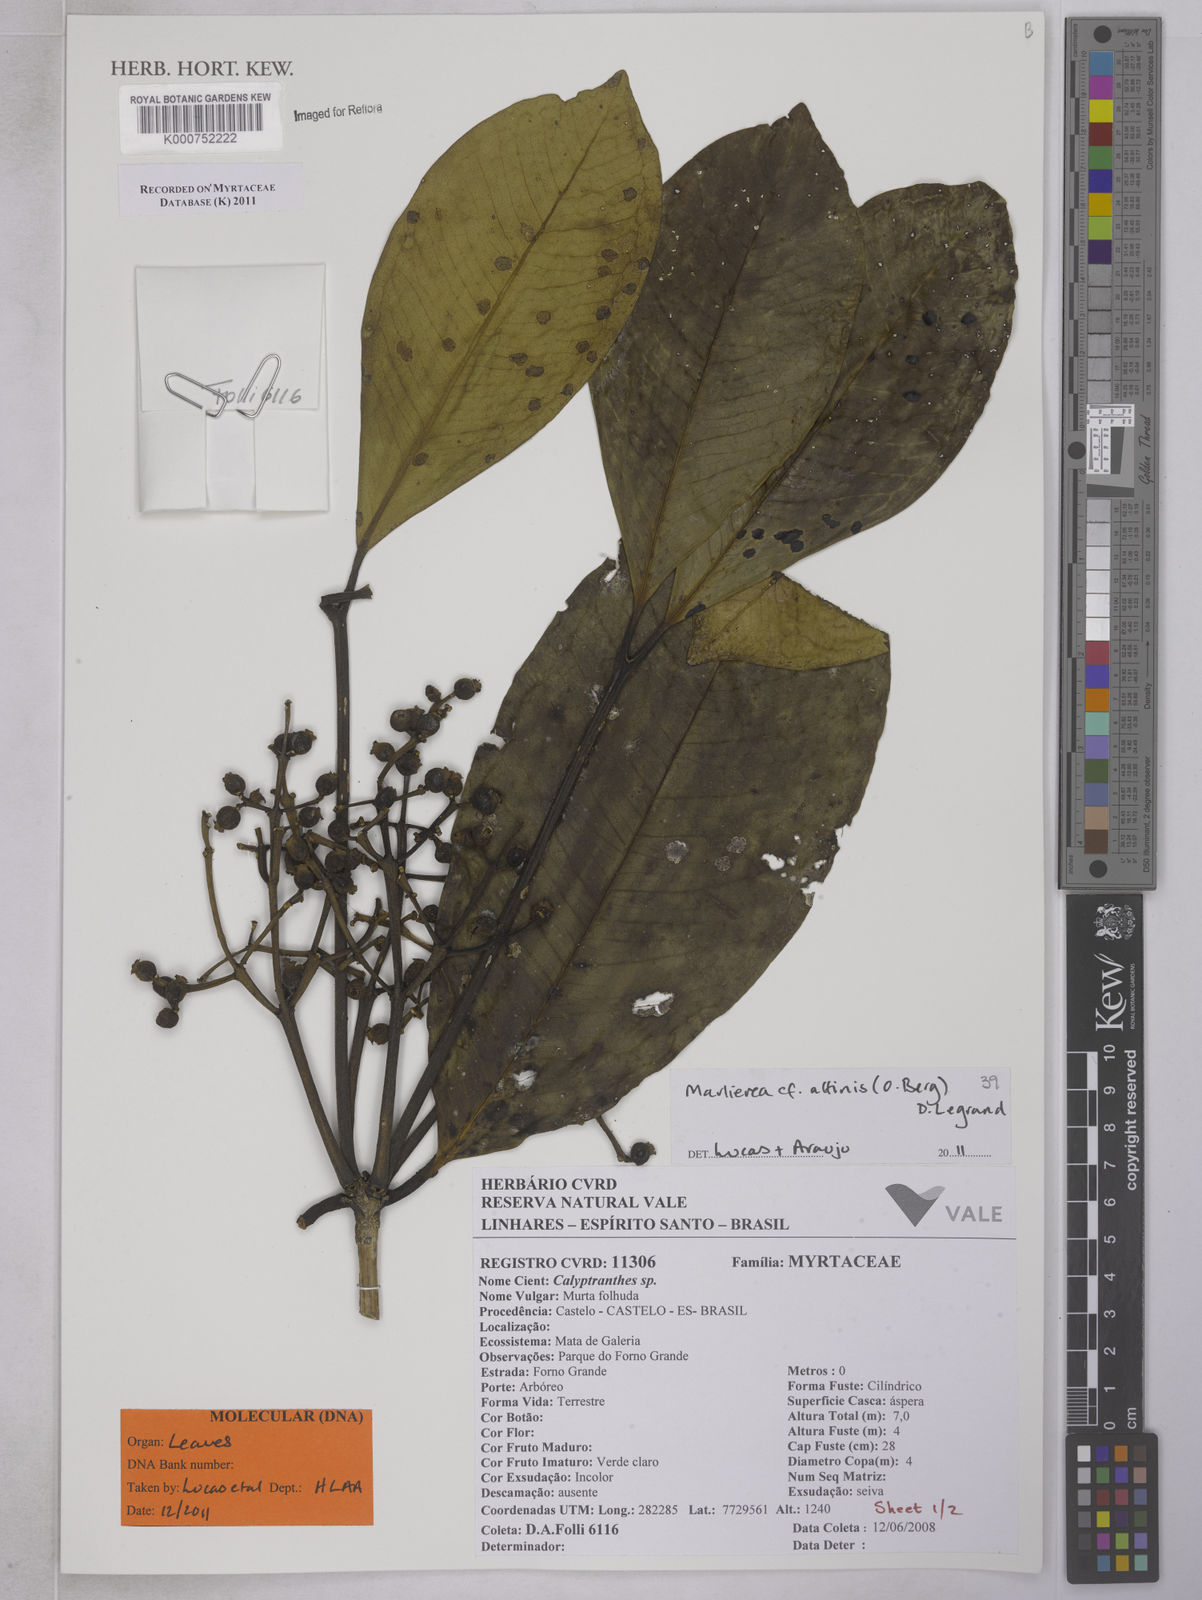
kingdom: Plantae
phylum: Tracheophyta
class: Magnoliopsida
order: Myrtales
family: Myrtaceae
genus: Myrcia
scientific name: Myrcia
